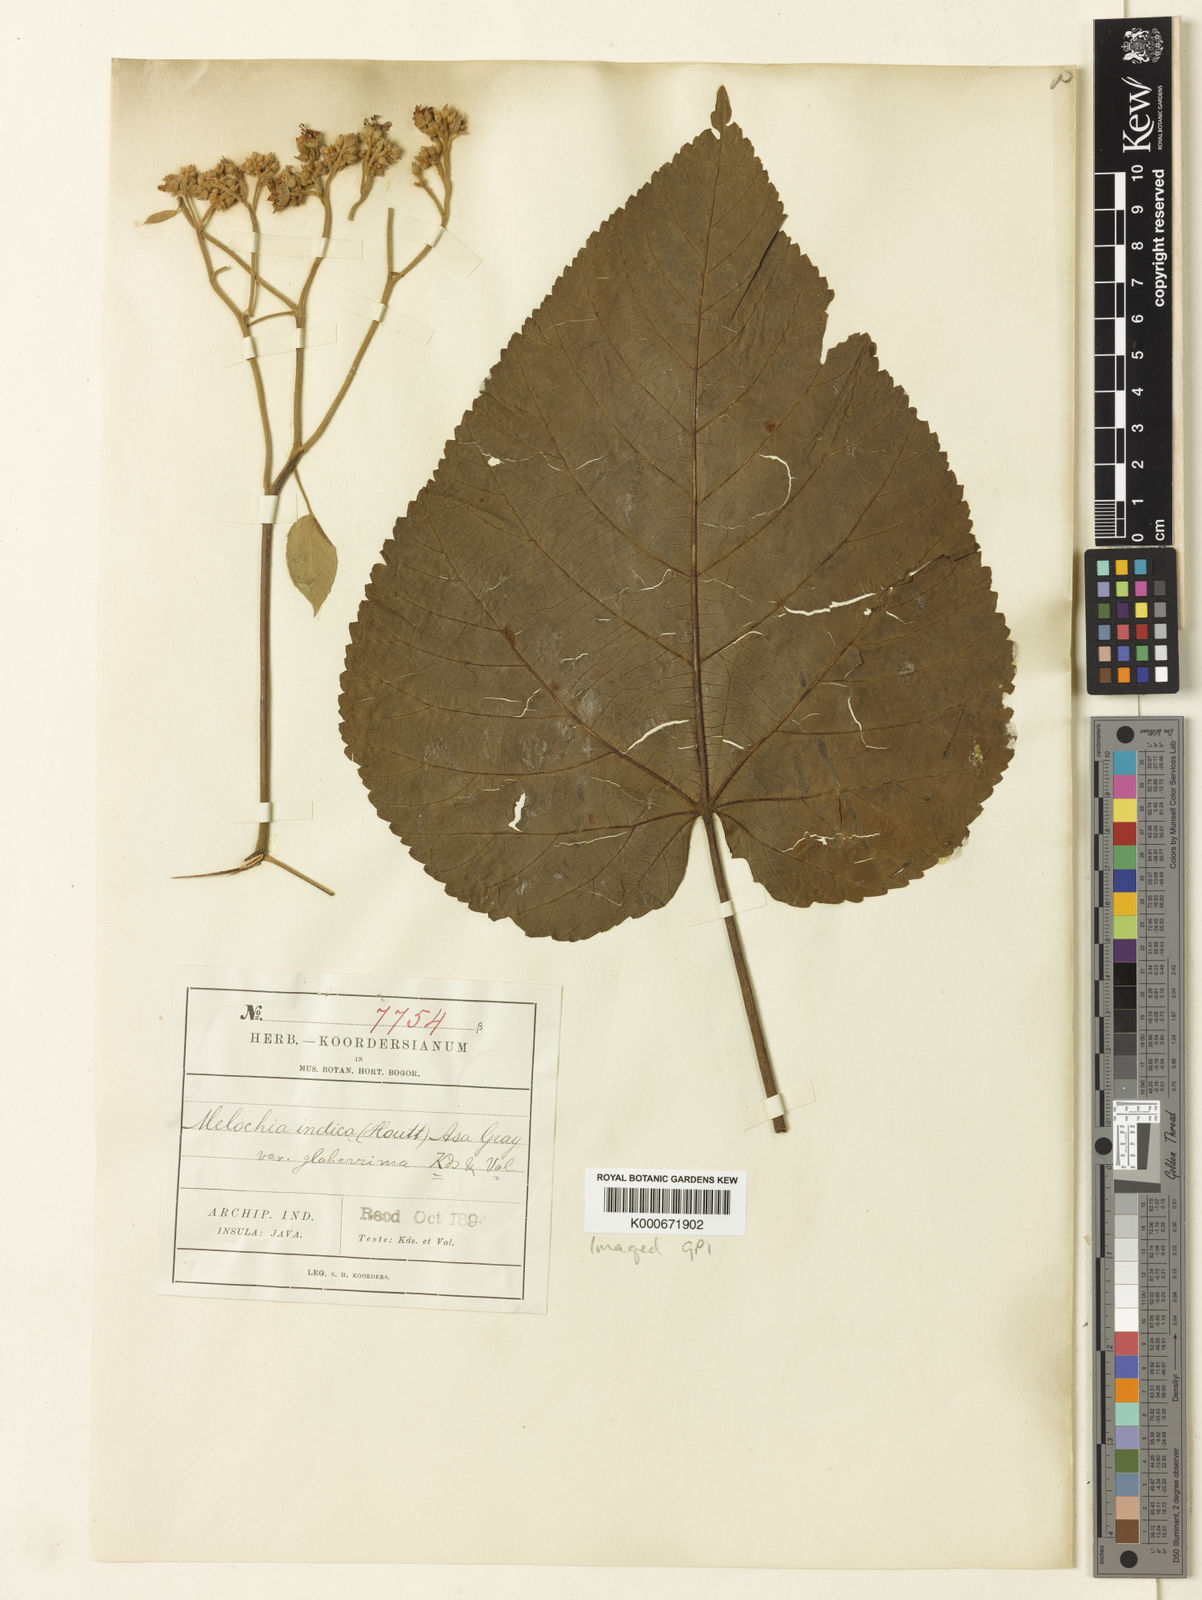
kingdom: Plantae
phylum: Tracheophyta
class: Magnoliopsida
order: Malvales
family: Malvaceae
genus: Melochia
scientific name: Melochia umbellata
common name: Gunpowder tree
